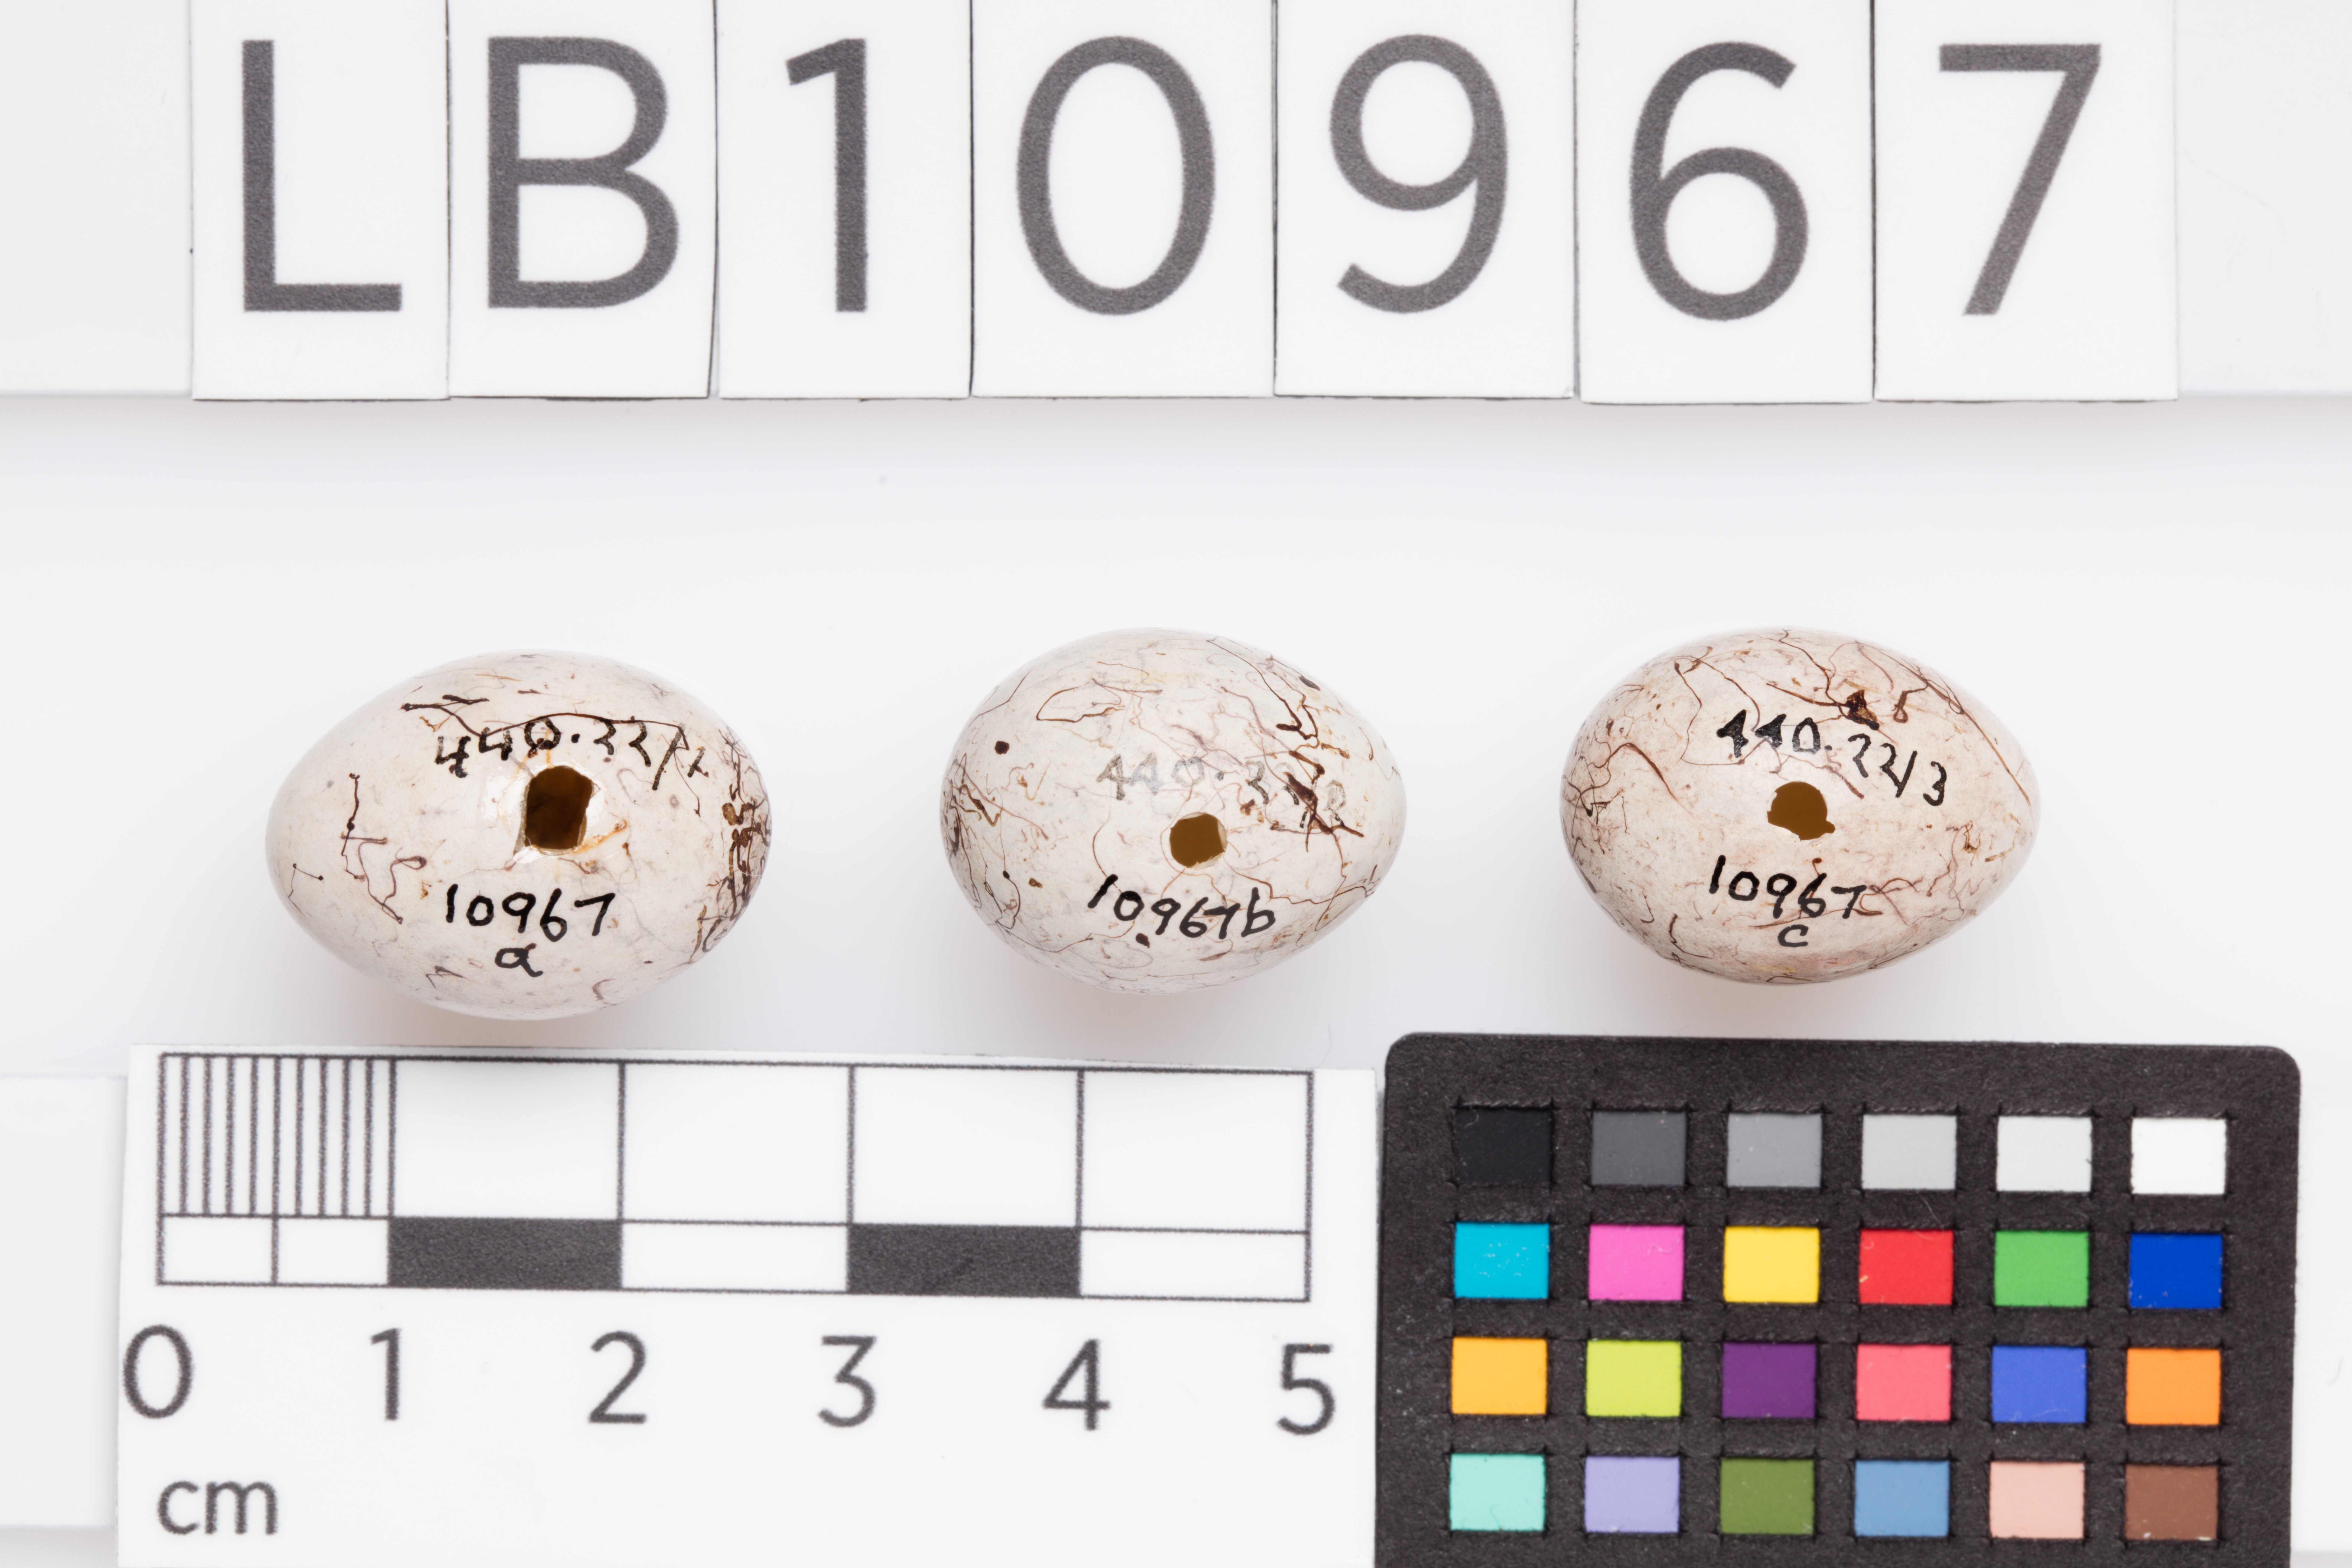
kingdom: Animalia
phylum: Chordata
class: Aves
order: Passeriformes
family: Emberizidae
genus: Emberiza
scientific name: Emberiza citrinella
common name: Yellowhammer
